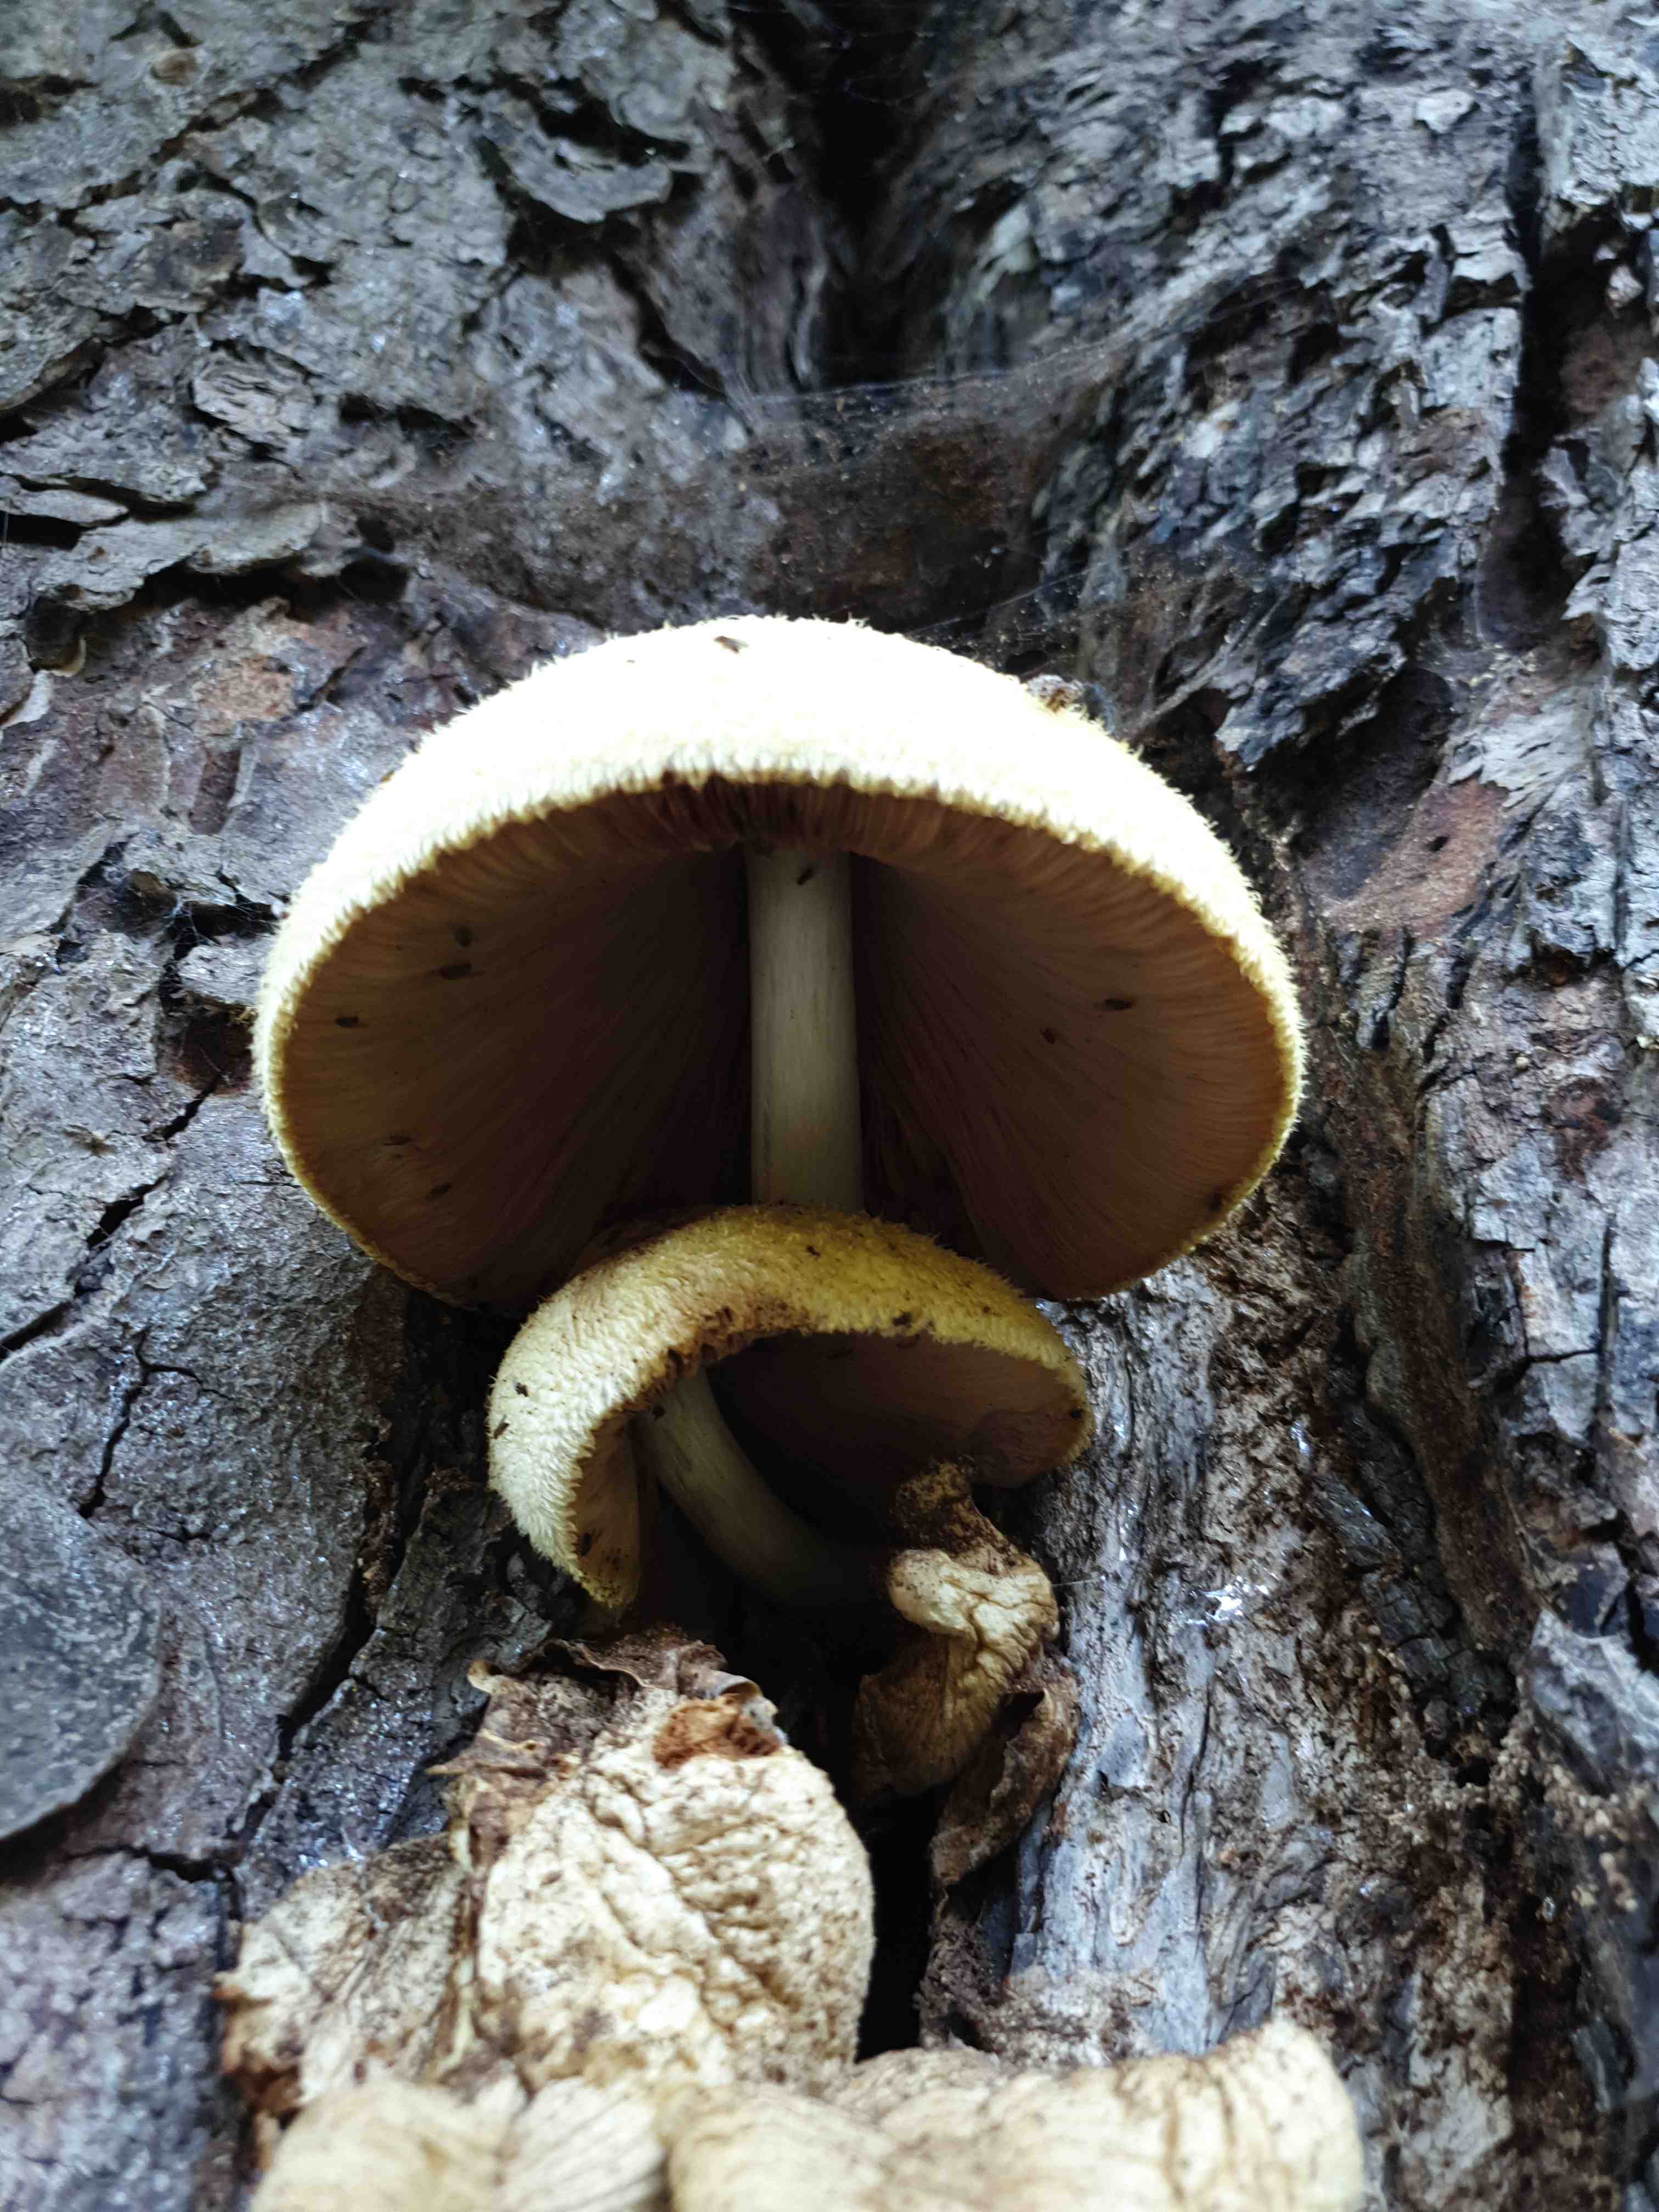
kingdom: Fungi
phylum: Basidiomycota
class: Agaricomycetes
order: Agaricales
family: Pluteaceae
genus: Volvariella
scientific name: Volvariella bombycina
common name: silkehåret posesvamp
